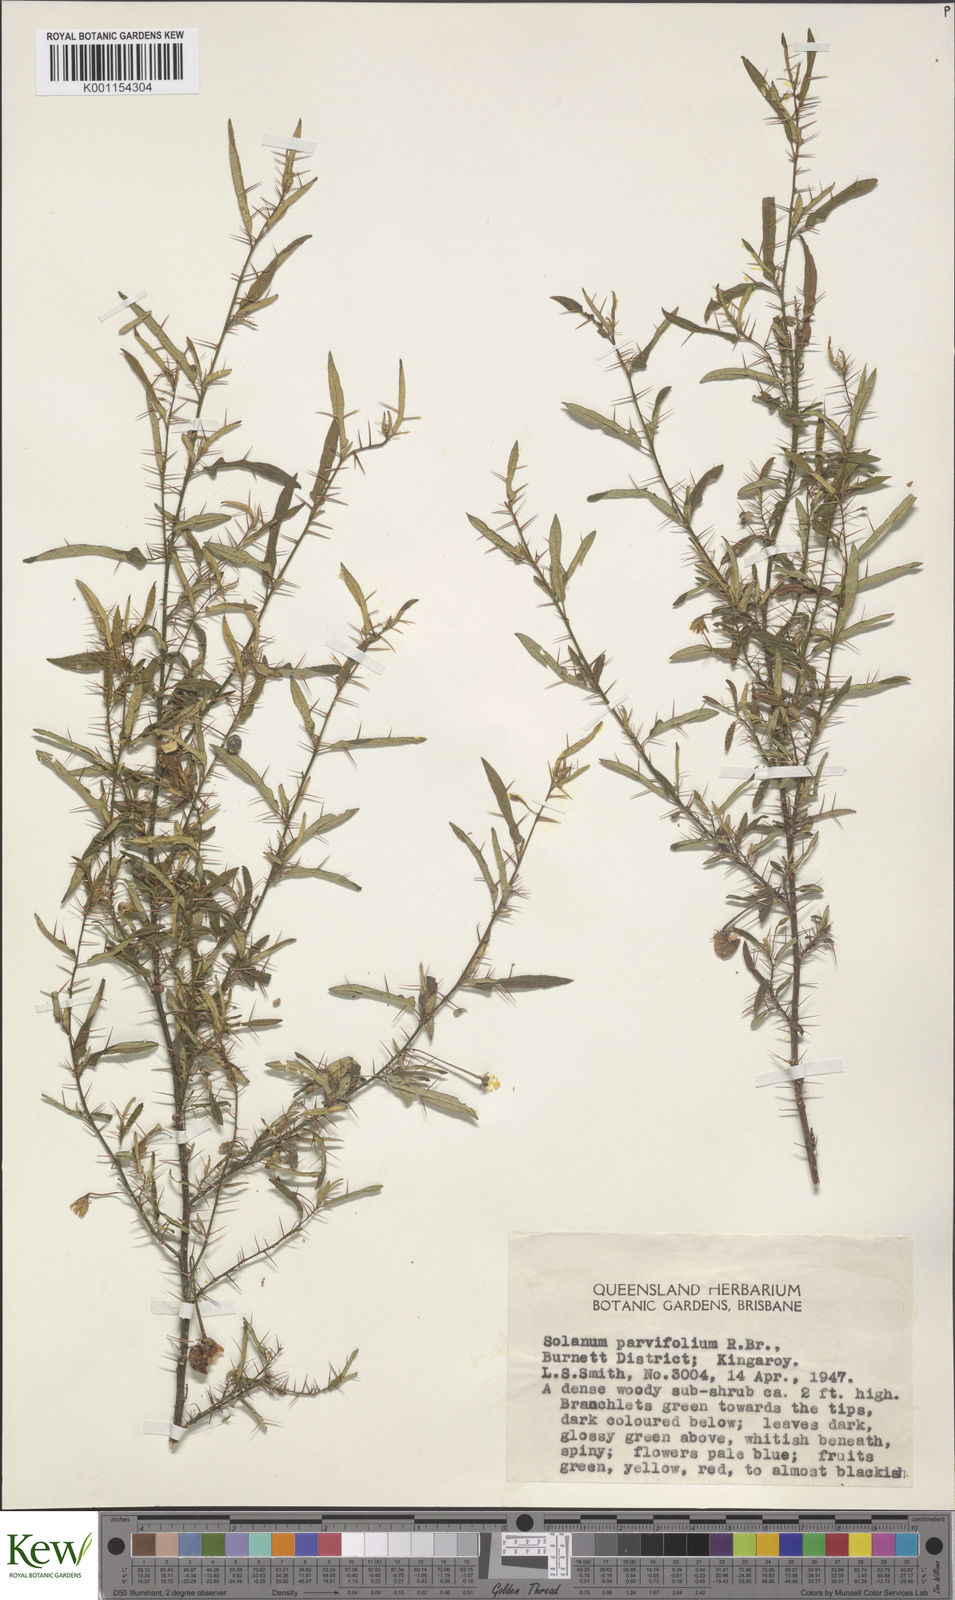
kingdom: Plantae
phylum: Tracheophyta
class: Magnoliopsida
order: Solanales
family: Solanaceae
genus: Solanum
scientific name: Solanum parvifolium
